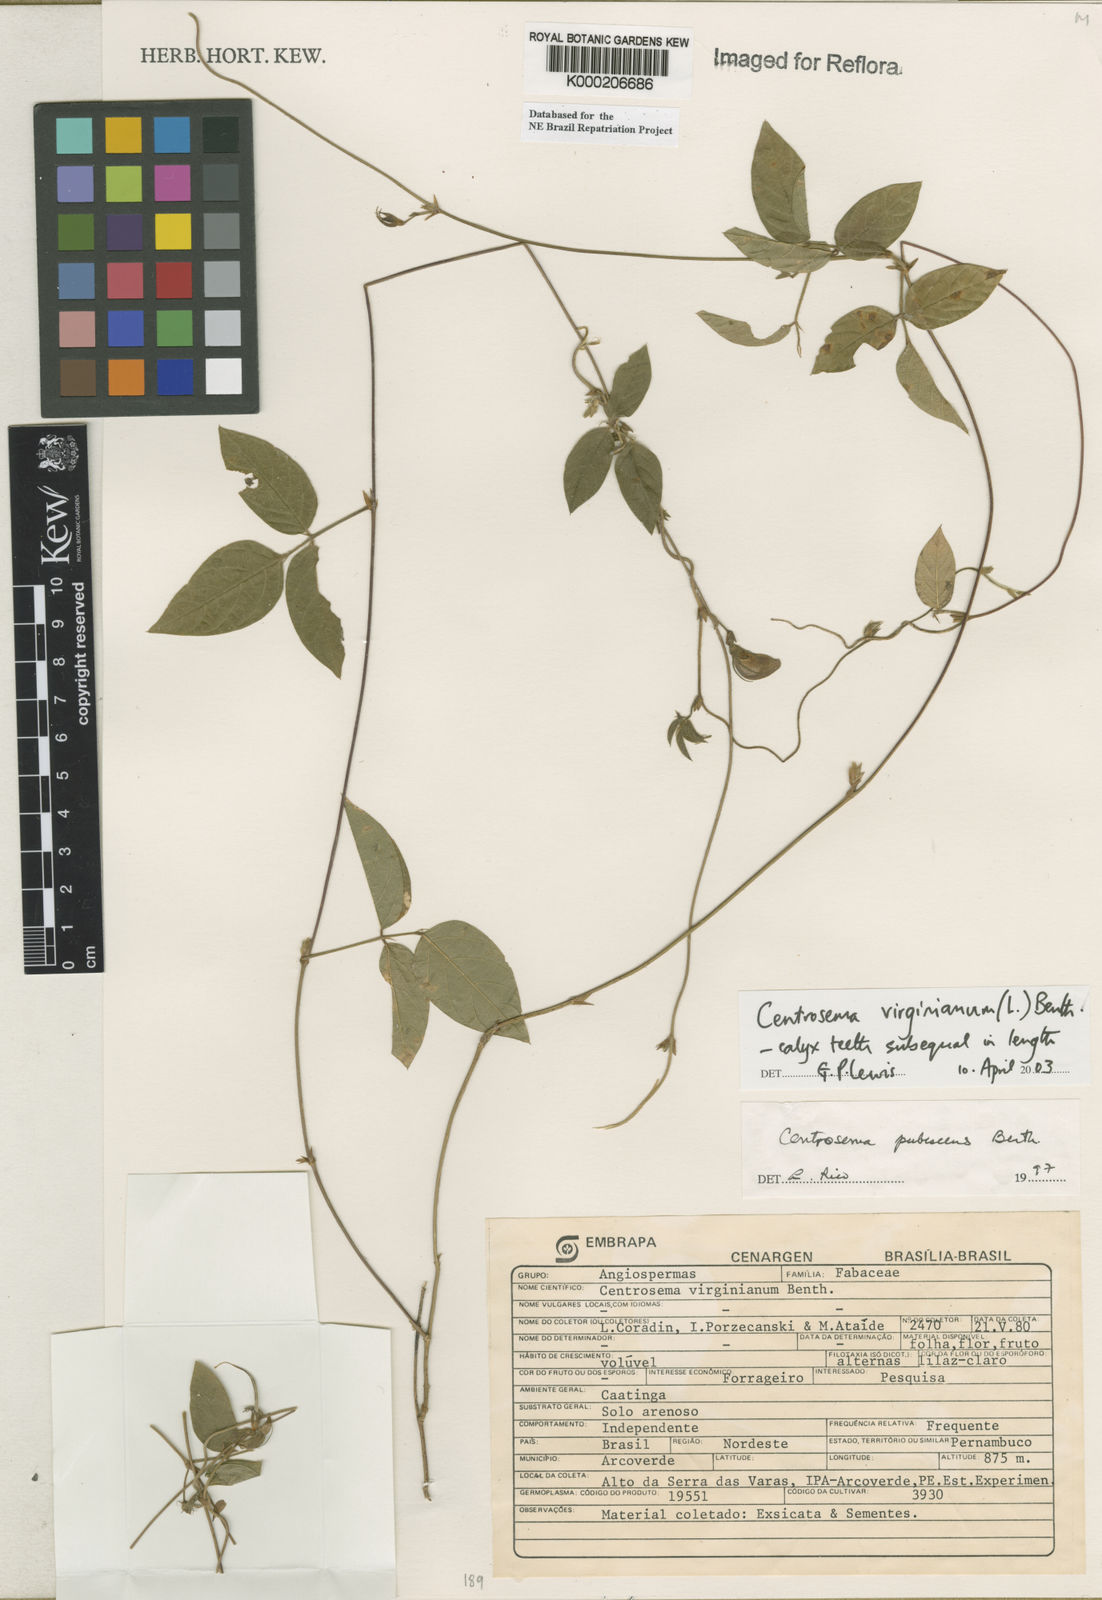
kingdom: Plantae
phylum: Tracheophyta
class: Magnoliopsida
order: Fabales
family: Fabaceae
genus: Centrosema
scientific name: Centrosema virginianum
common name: Butterfly-pea
